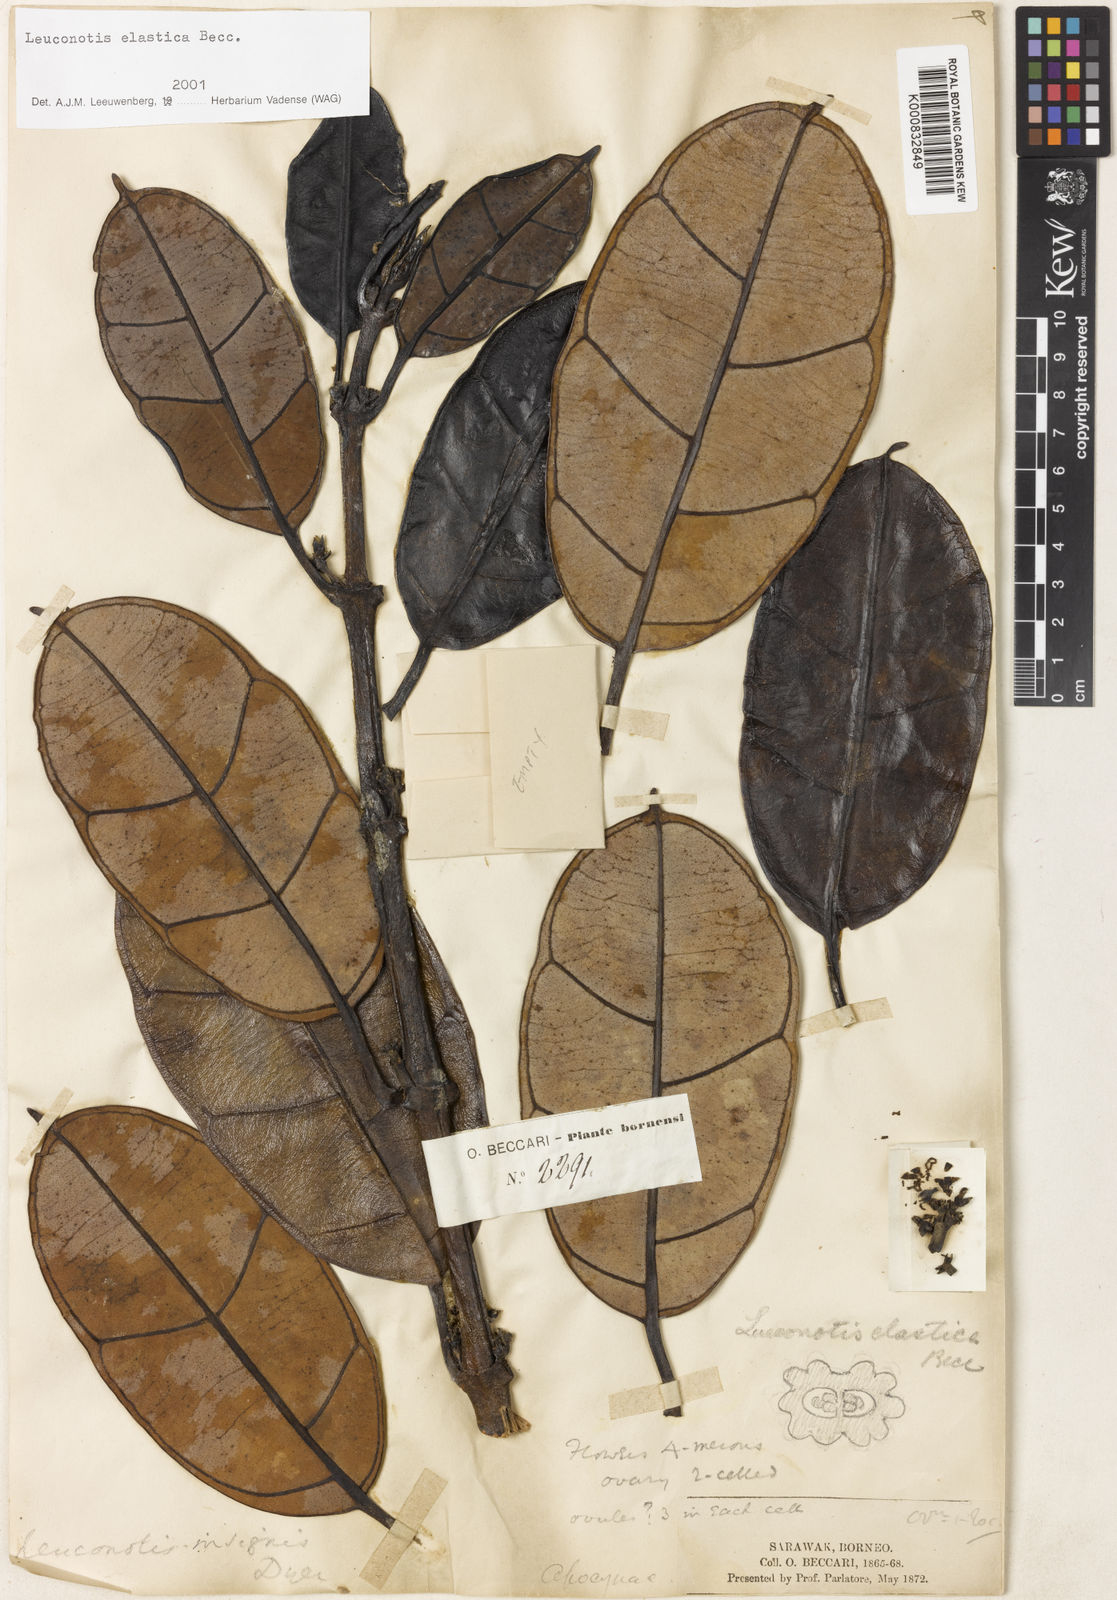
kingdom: Plantae
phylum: Tracheophyta
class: Magnoliopsida
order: Gentianales
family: Apocynaceae
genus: Leuconotis
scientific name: Leuconotis griffithii
